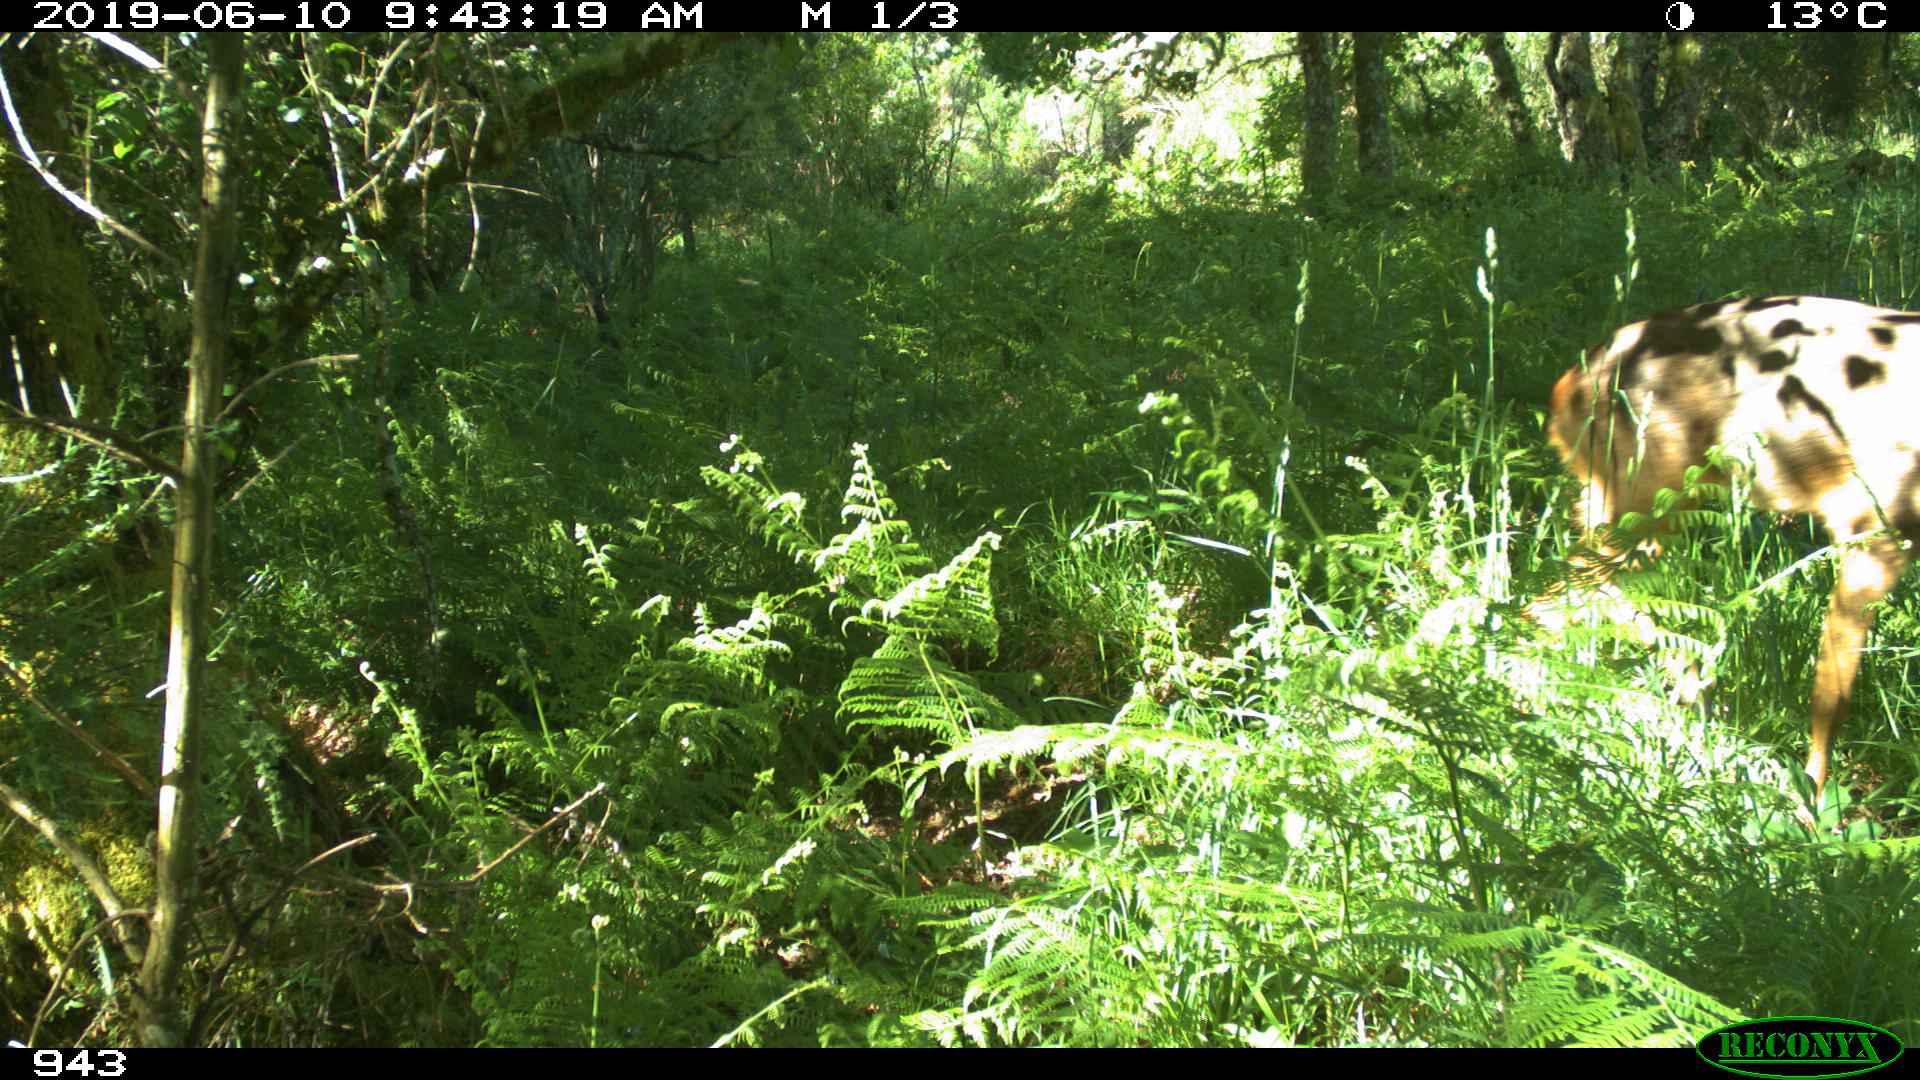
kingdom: Animalia
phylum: Chordata
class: Mammalia
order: Artiodactyla
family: Cervidae
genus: Capreolus
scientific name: Capreolus capreolus
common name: Western roe deer
